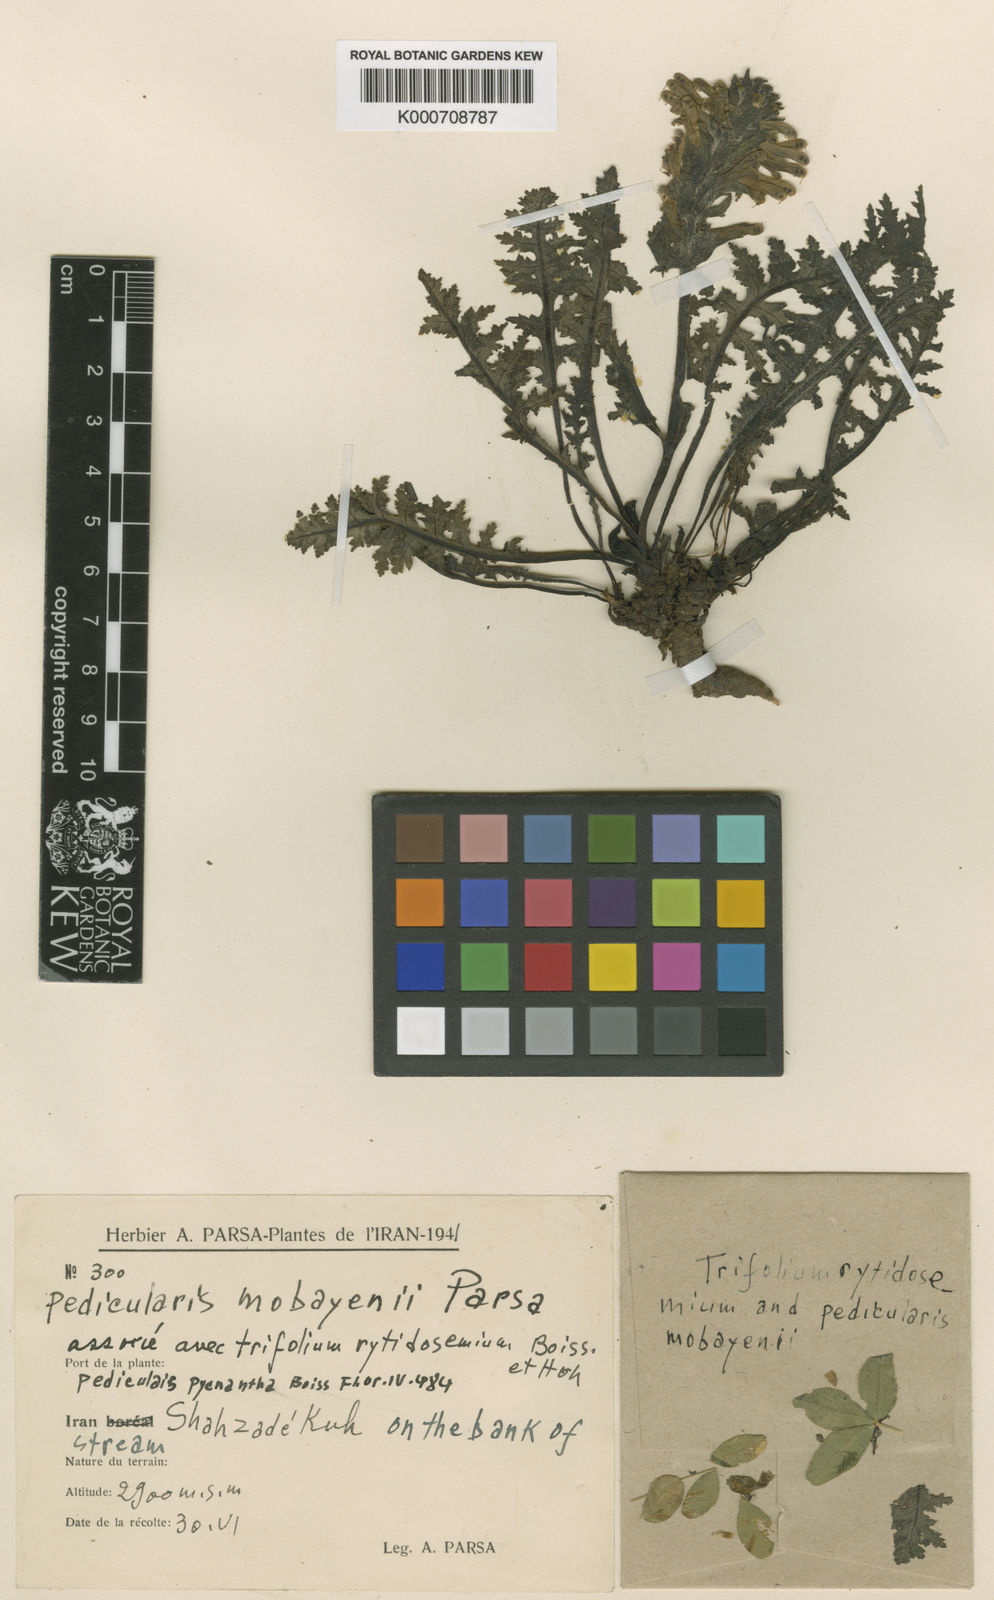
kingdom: Plantae
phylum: Tracheophyta
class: Magnoliopsida
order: Lamiales
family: Orobanchaceae
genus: Pedicularis
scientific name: Pedicularis pycnantha
